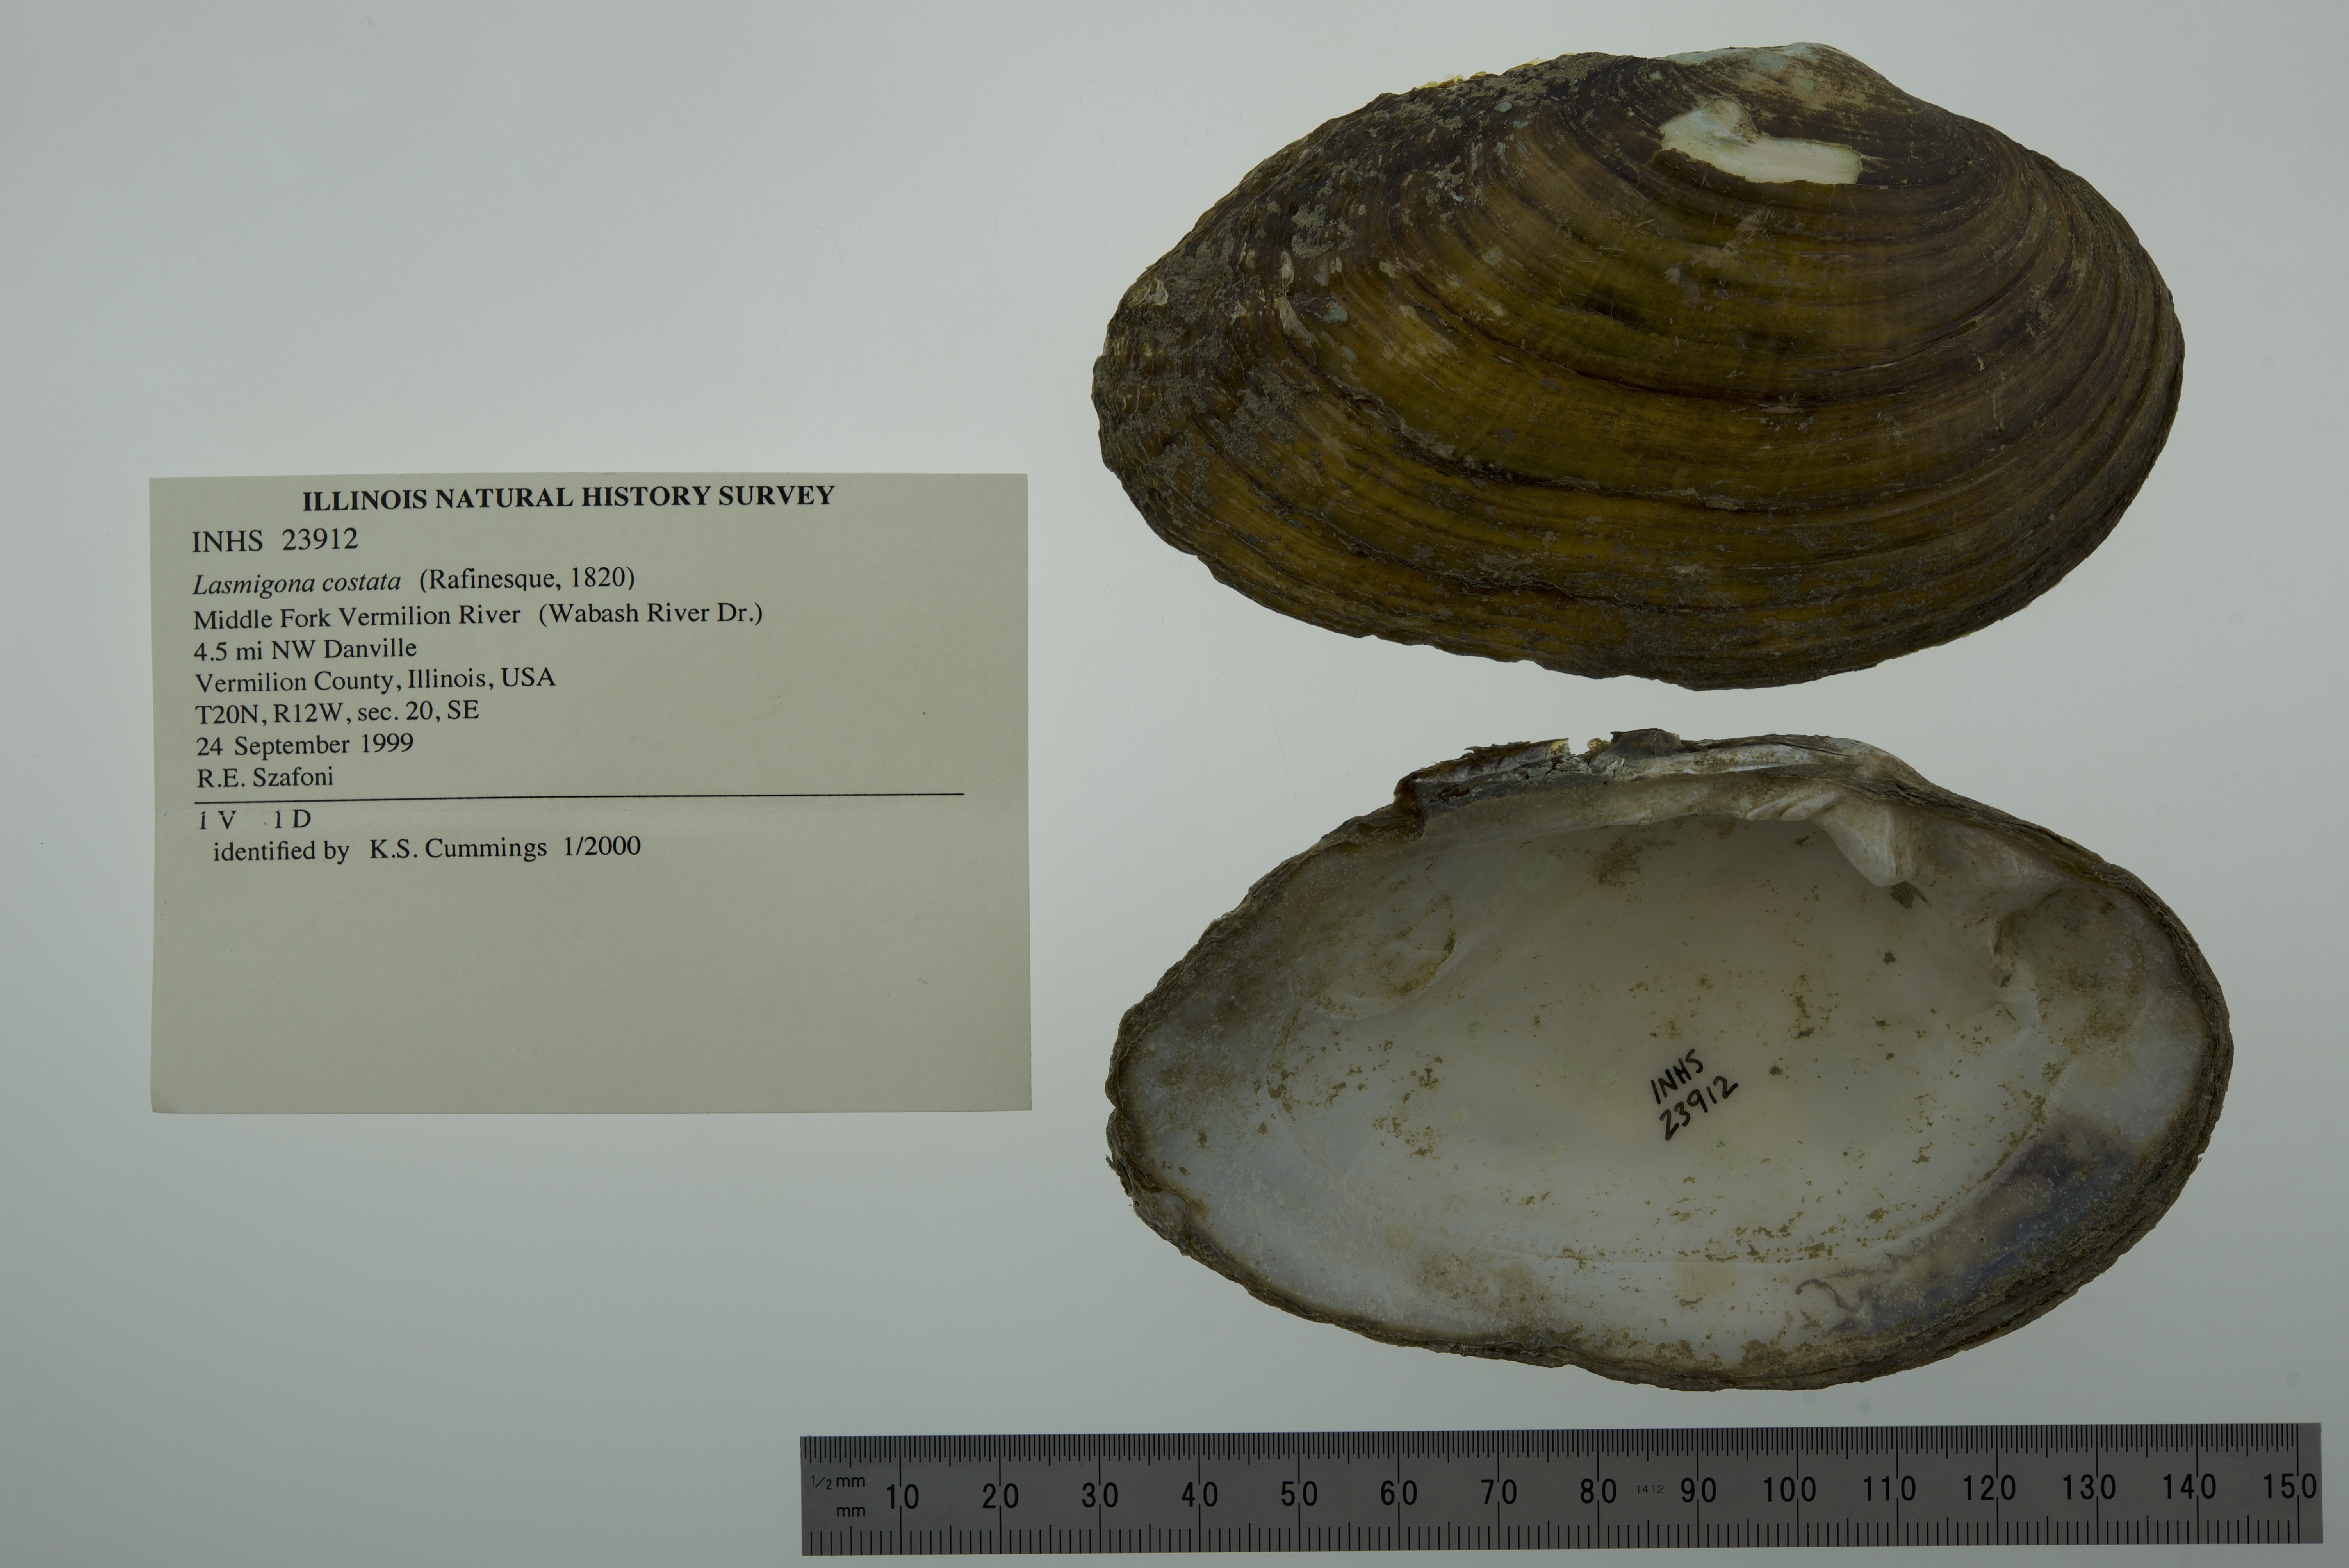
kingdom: Animalia
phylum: Mollusca
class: Gastropoda
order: Architaenioglossa
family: Viviparidae
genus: Callinina
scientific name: Callinina intertexta
